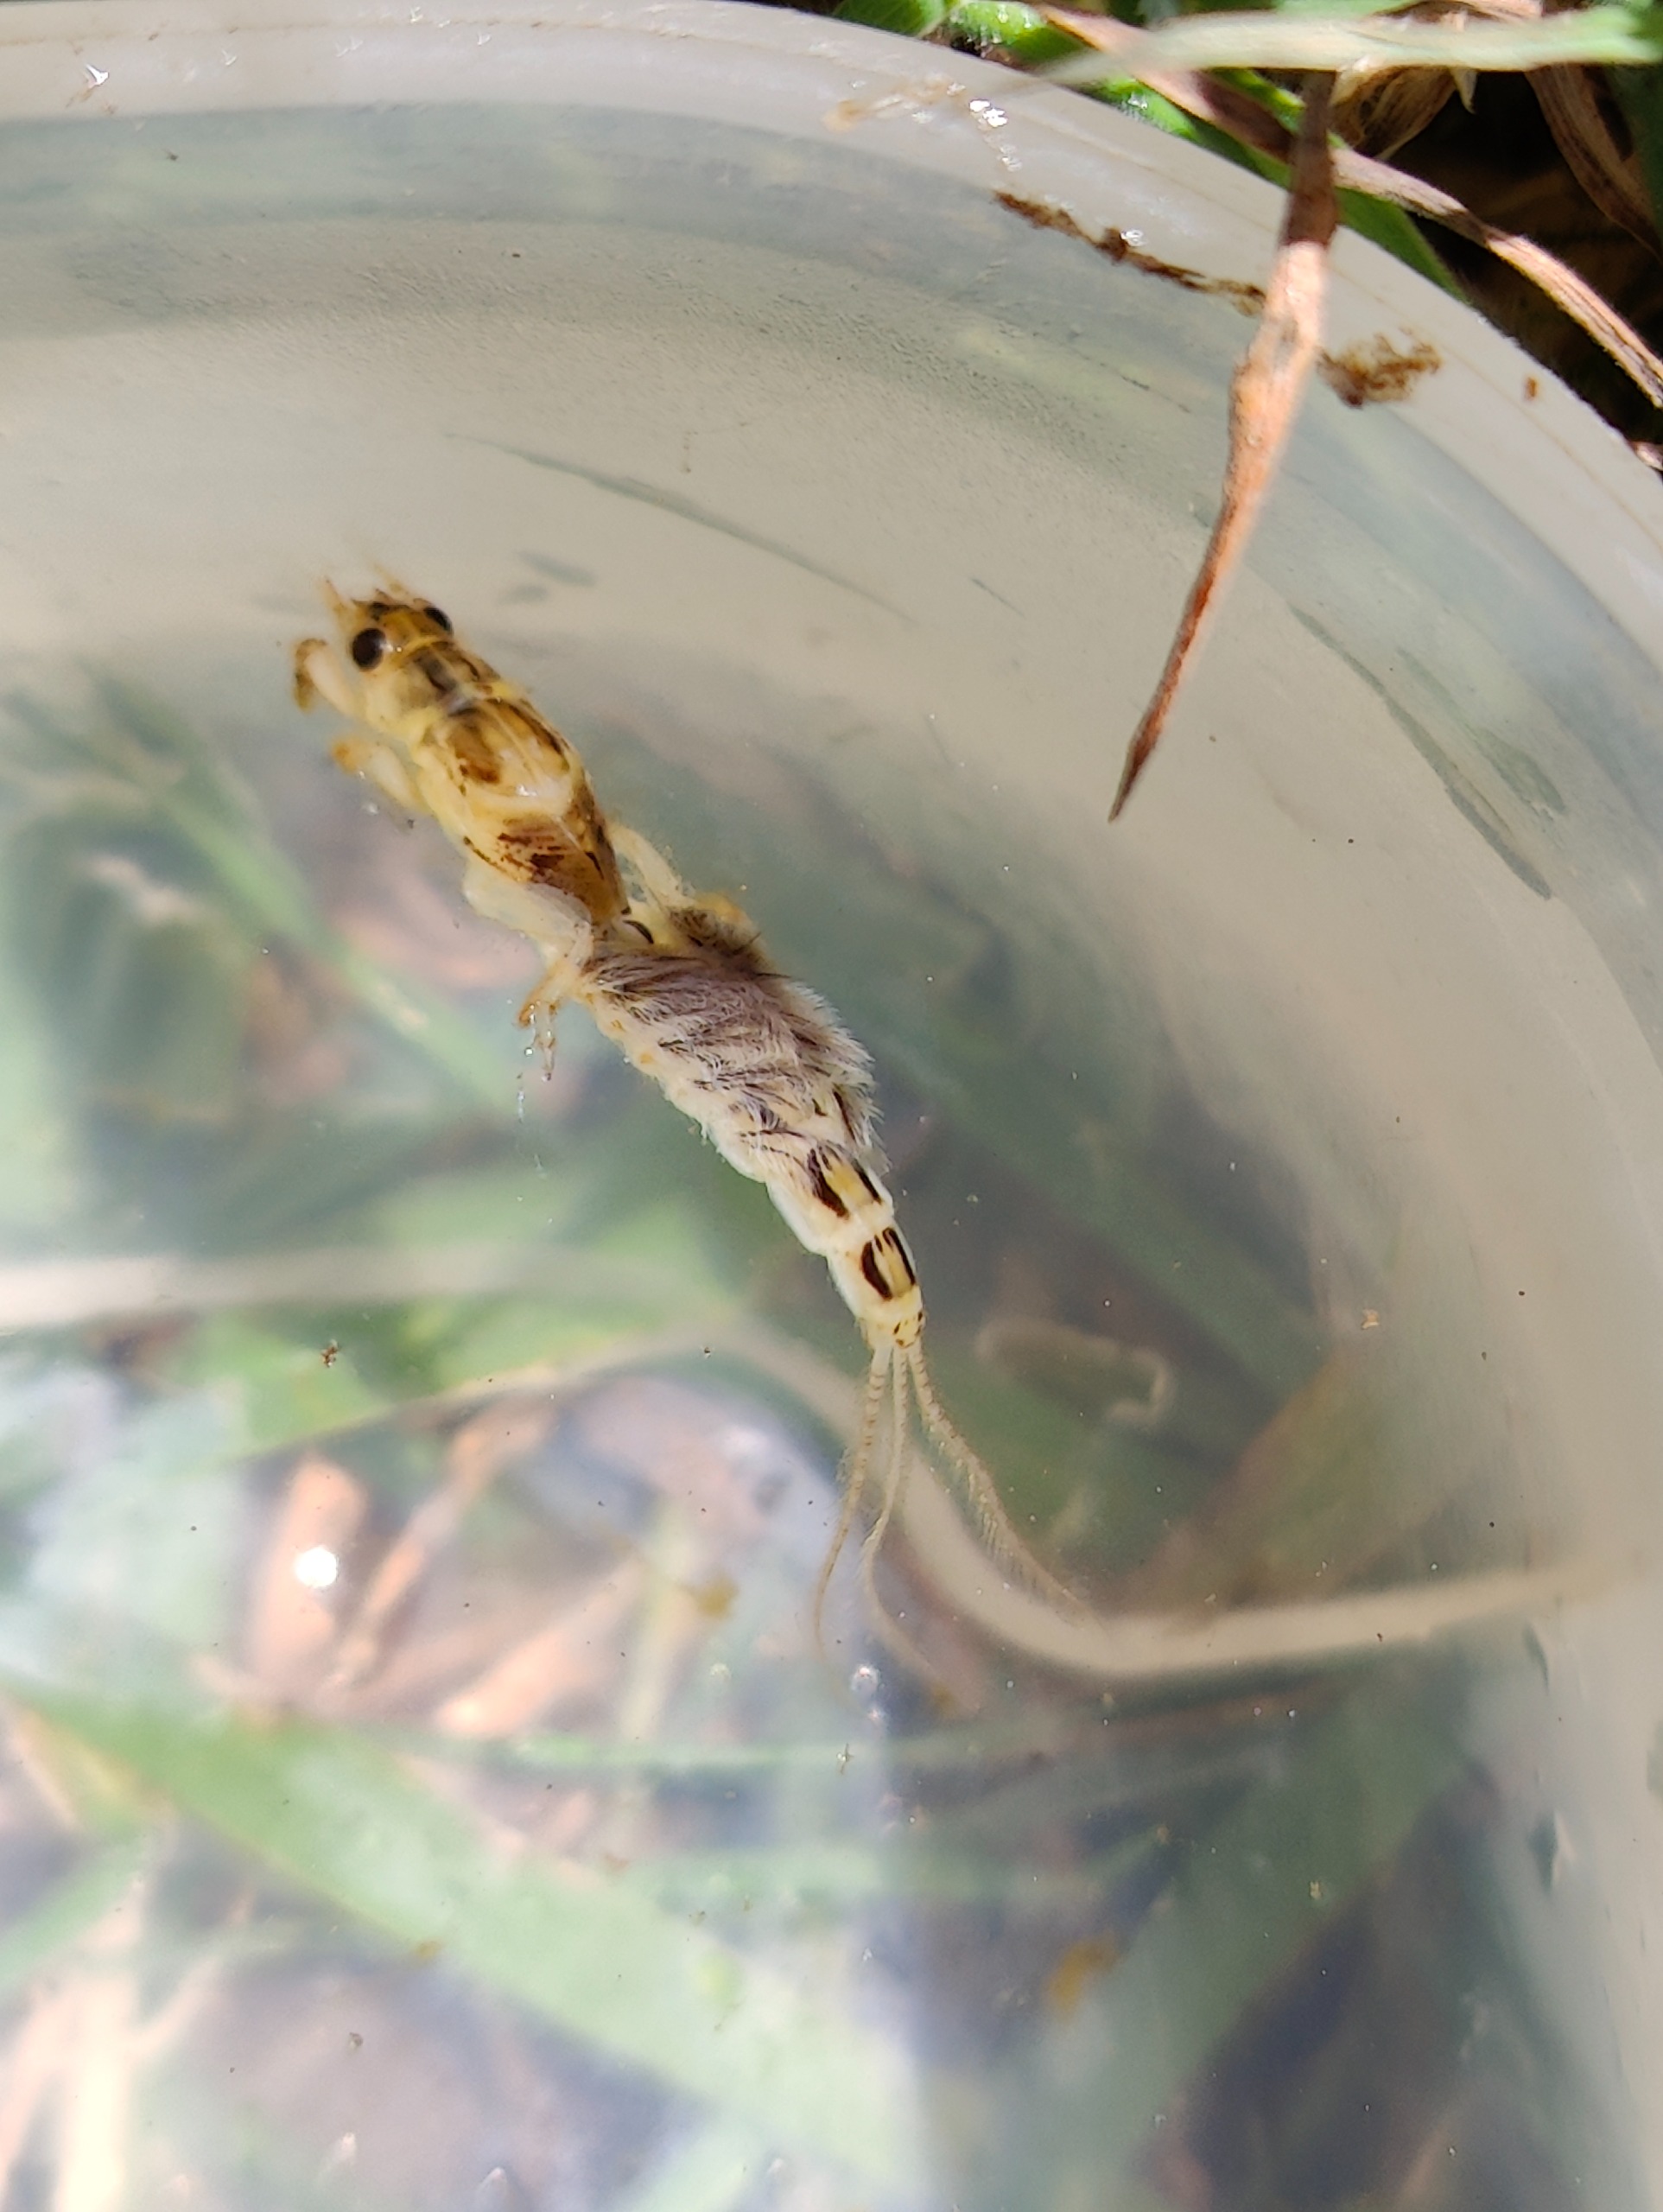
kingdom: Animalia
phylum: Arthropoda
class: Insecta
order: Ephemeroptera
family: Ephemeridae
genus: Ephemera
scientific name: Ephemera vulgata
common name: Sø-majflue
